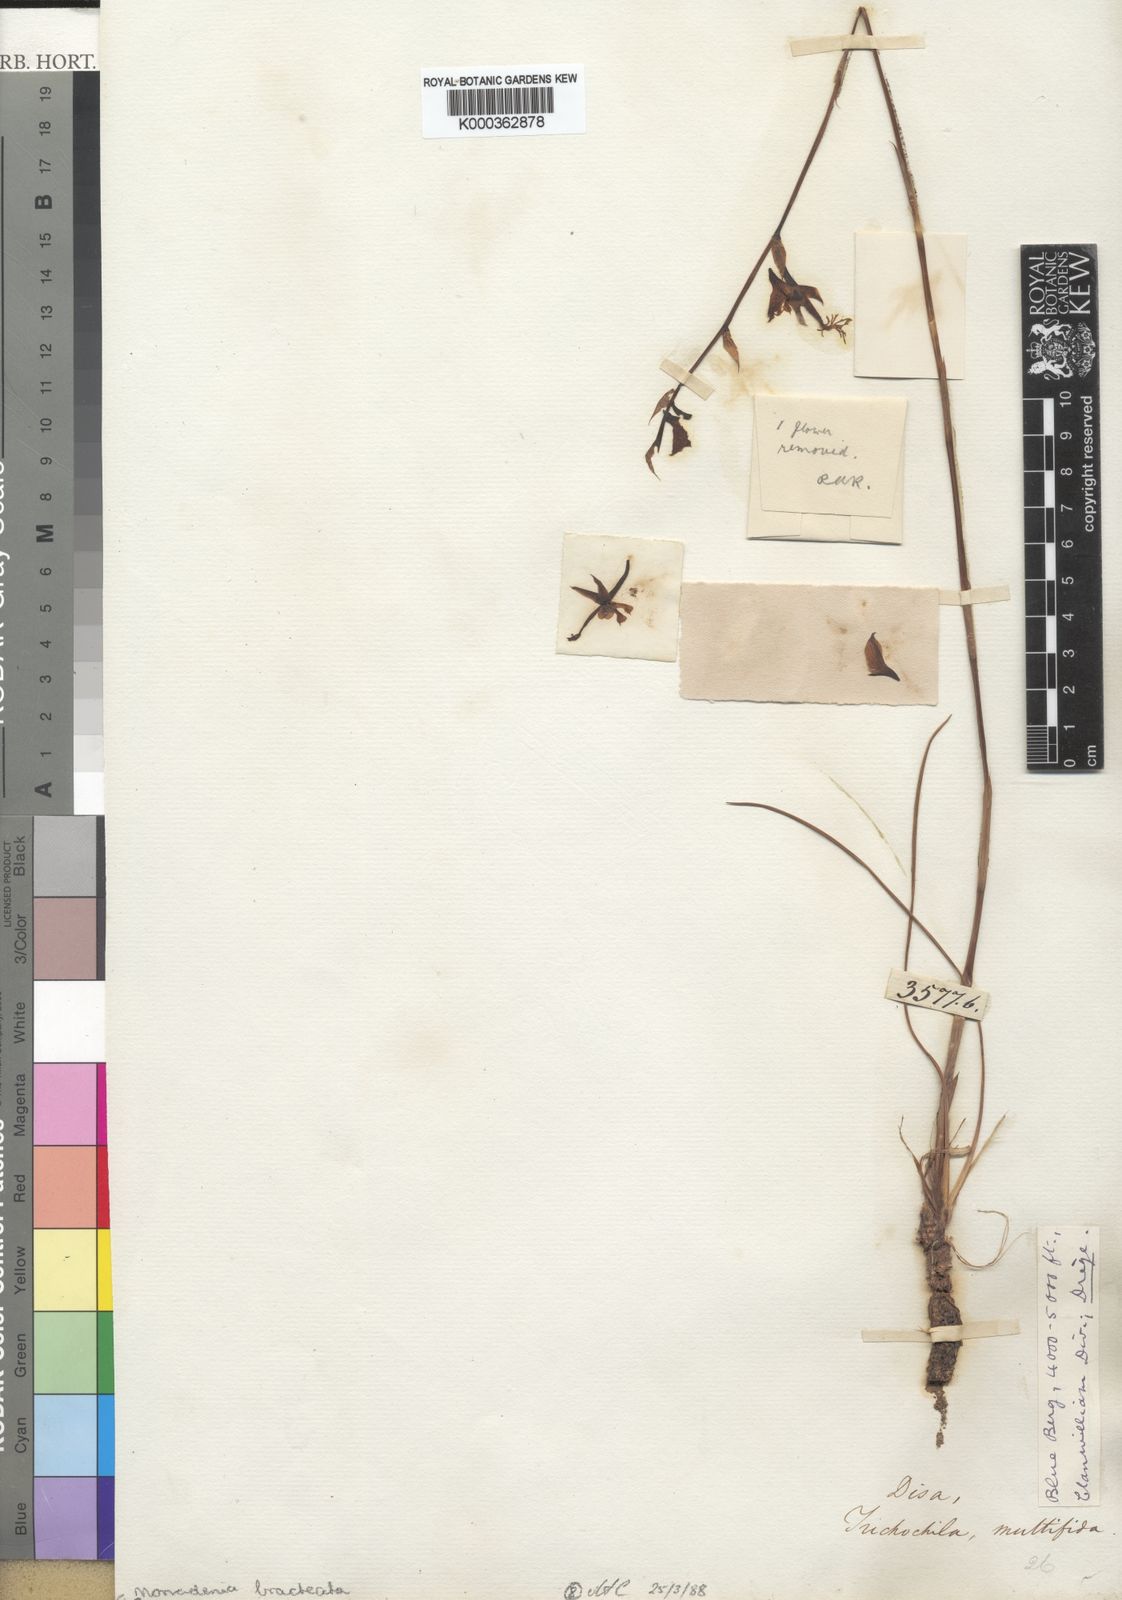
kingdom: Plantae
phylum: Tracheophyta
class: Liliopsida
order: Asparagales
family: Orchidaceae
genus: Disa
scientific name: Disa multifida
